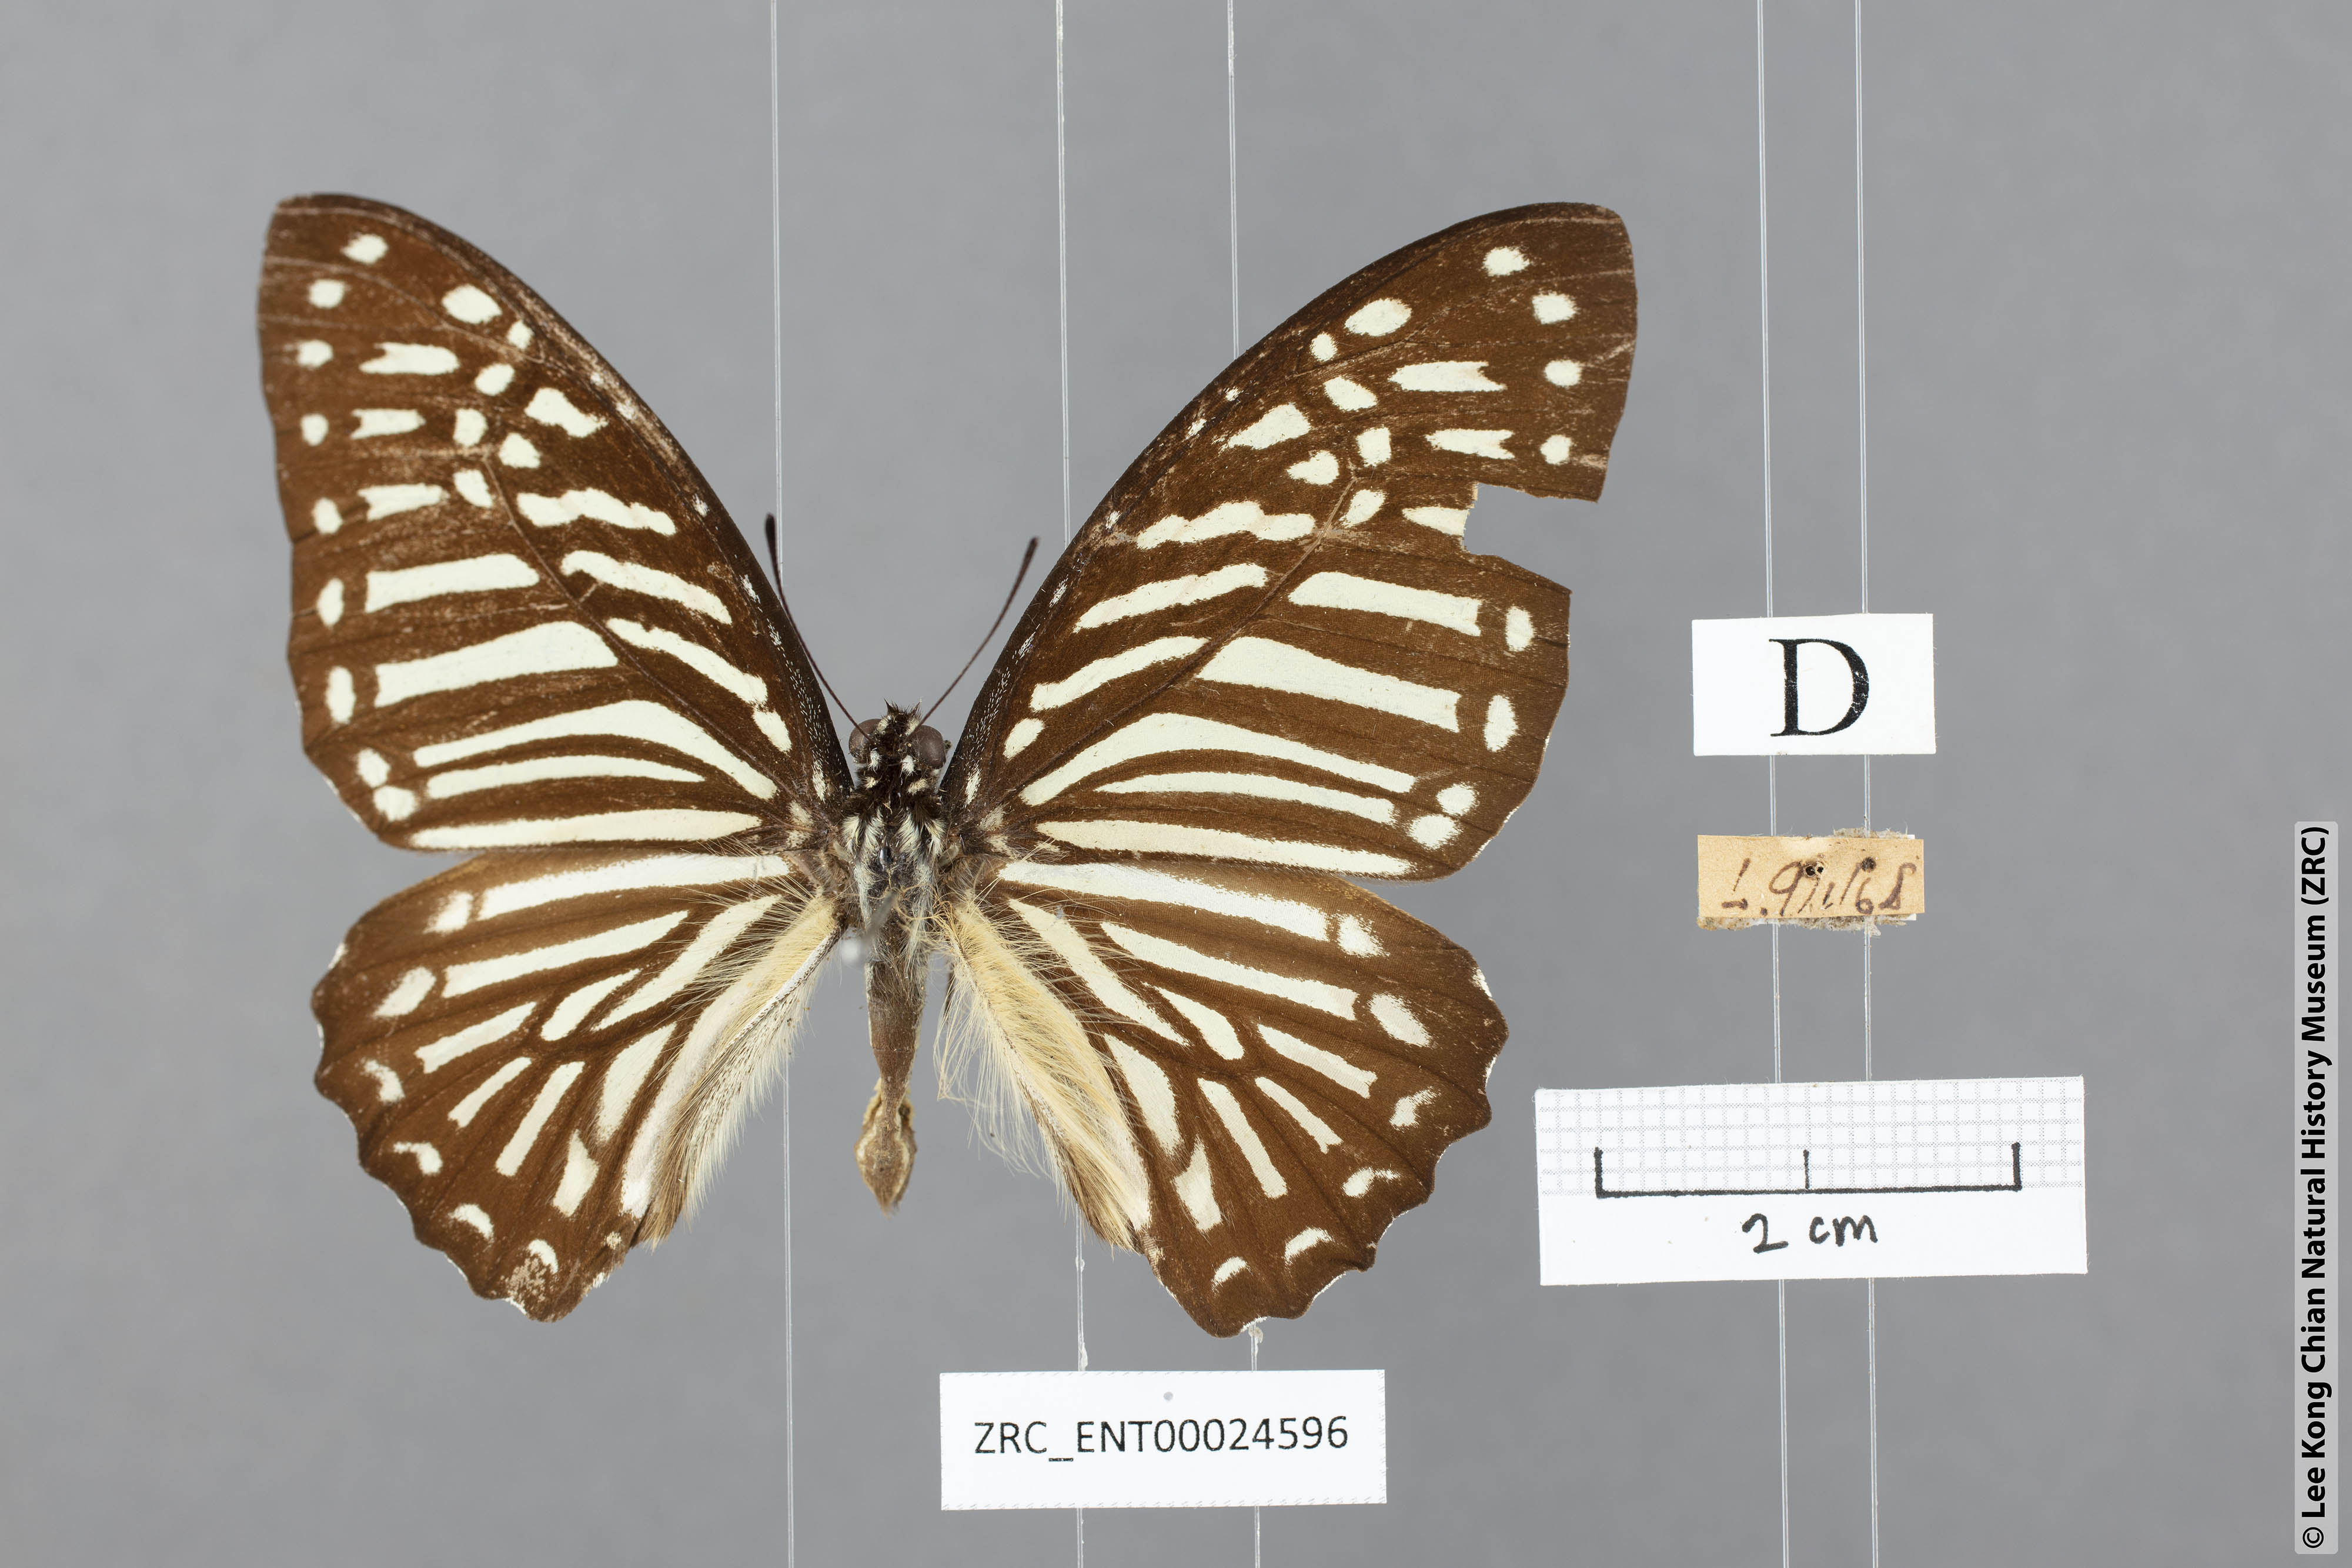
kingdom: Animalia
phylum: Arthropoda
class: Insecta
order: Lepidoptera
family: Papilionidae
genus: Graphium
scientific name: Graphium macareus
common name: Lesser zebra
